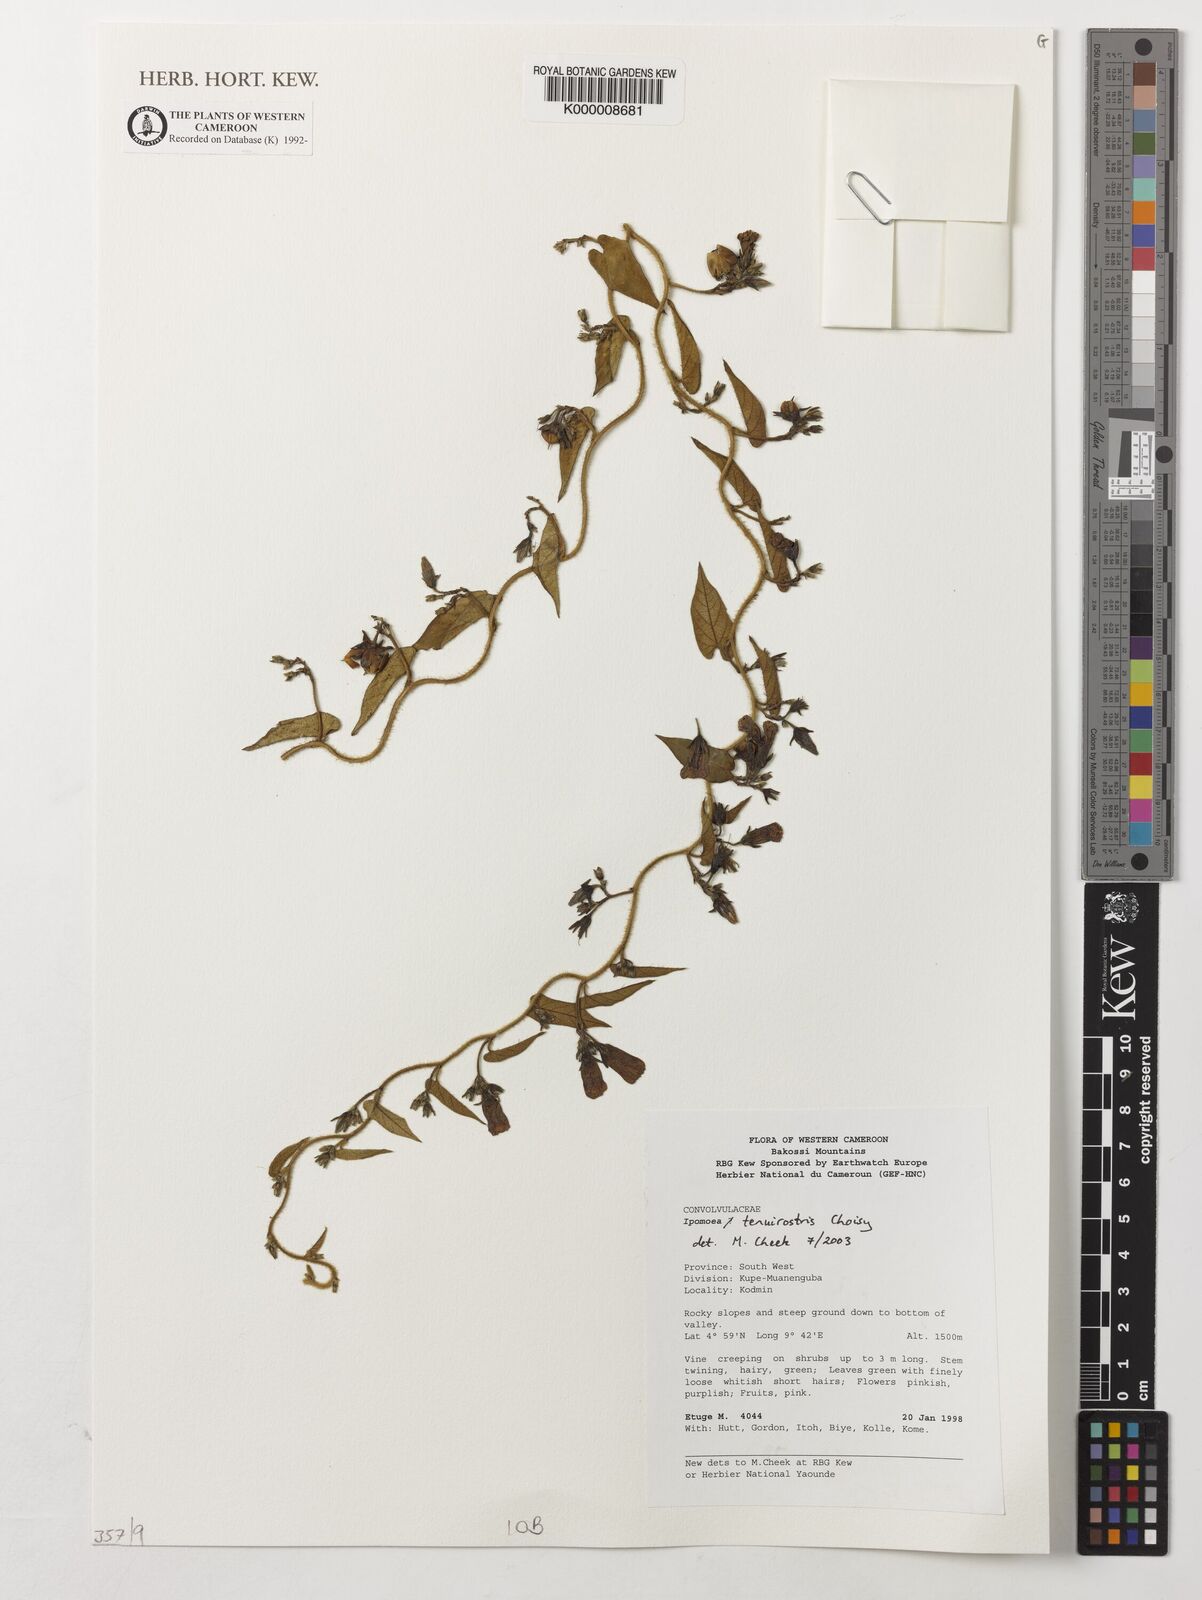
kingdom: Plantae
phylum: Tracheophyta
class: Magnoliopsida
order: Solanales
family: Convolvulaceae
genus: Ipomoea
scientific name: Ipomoea tenuirostris
